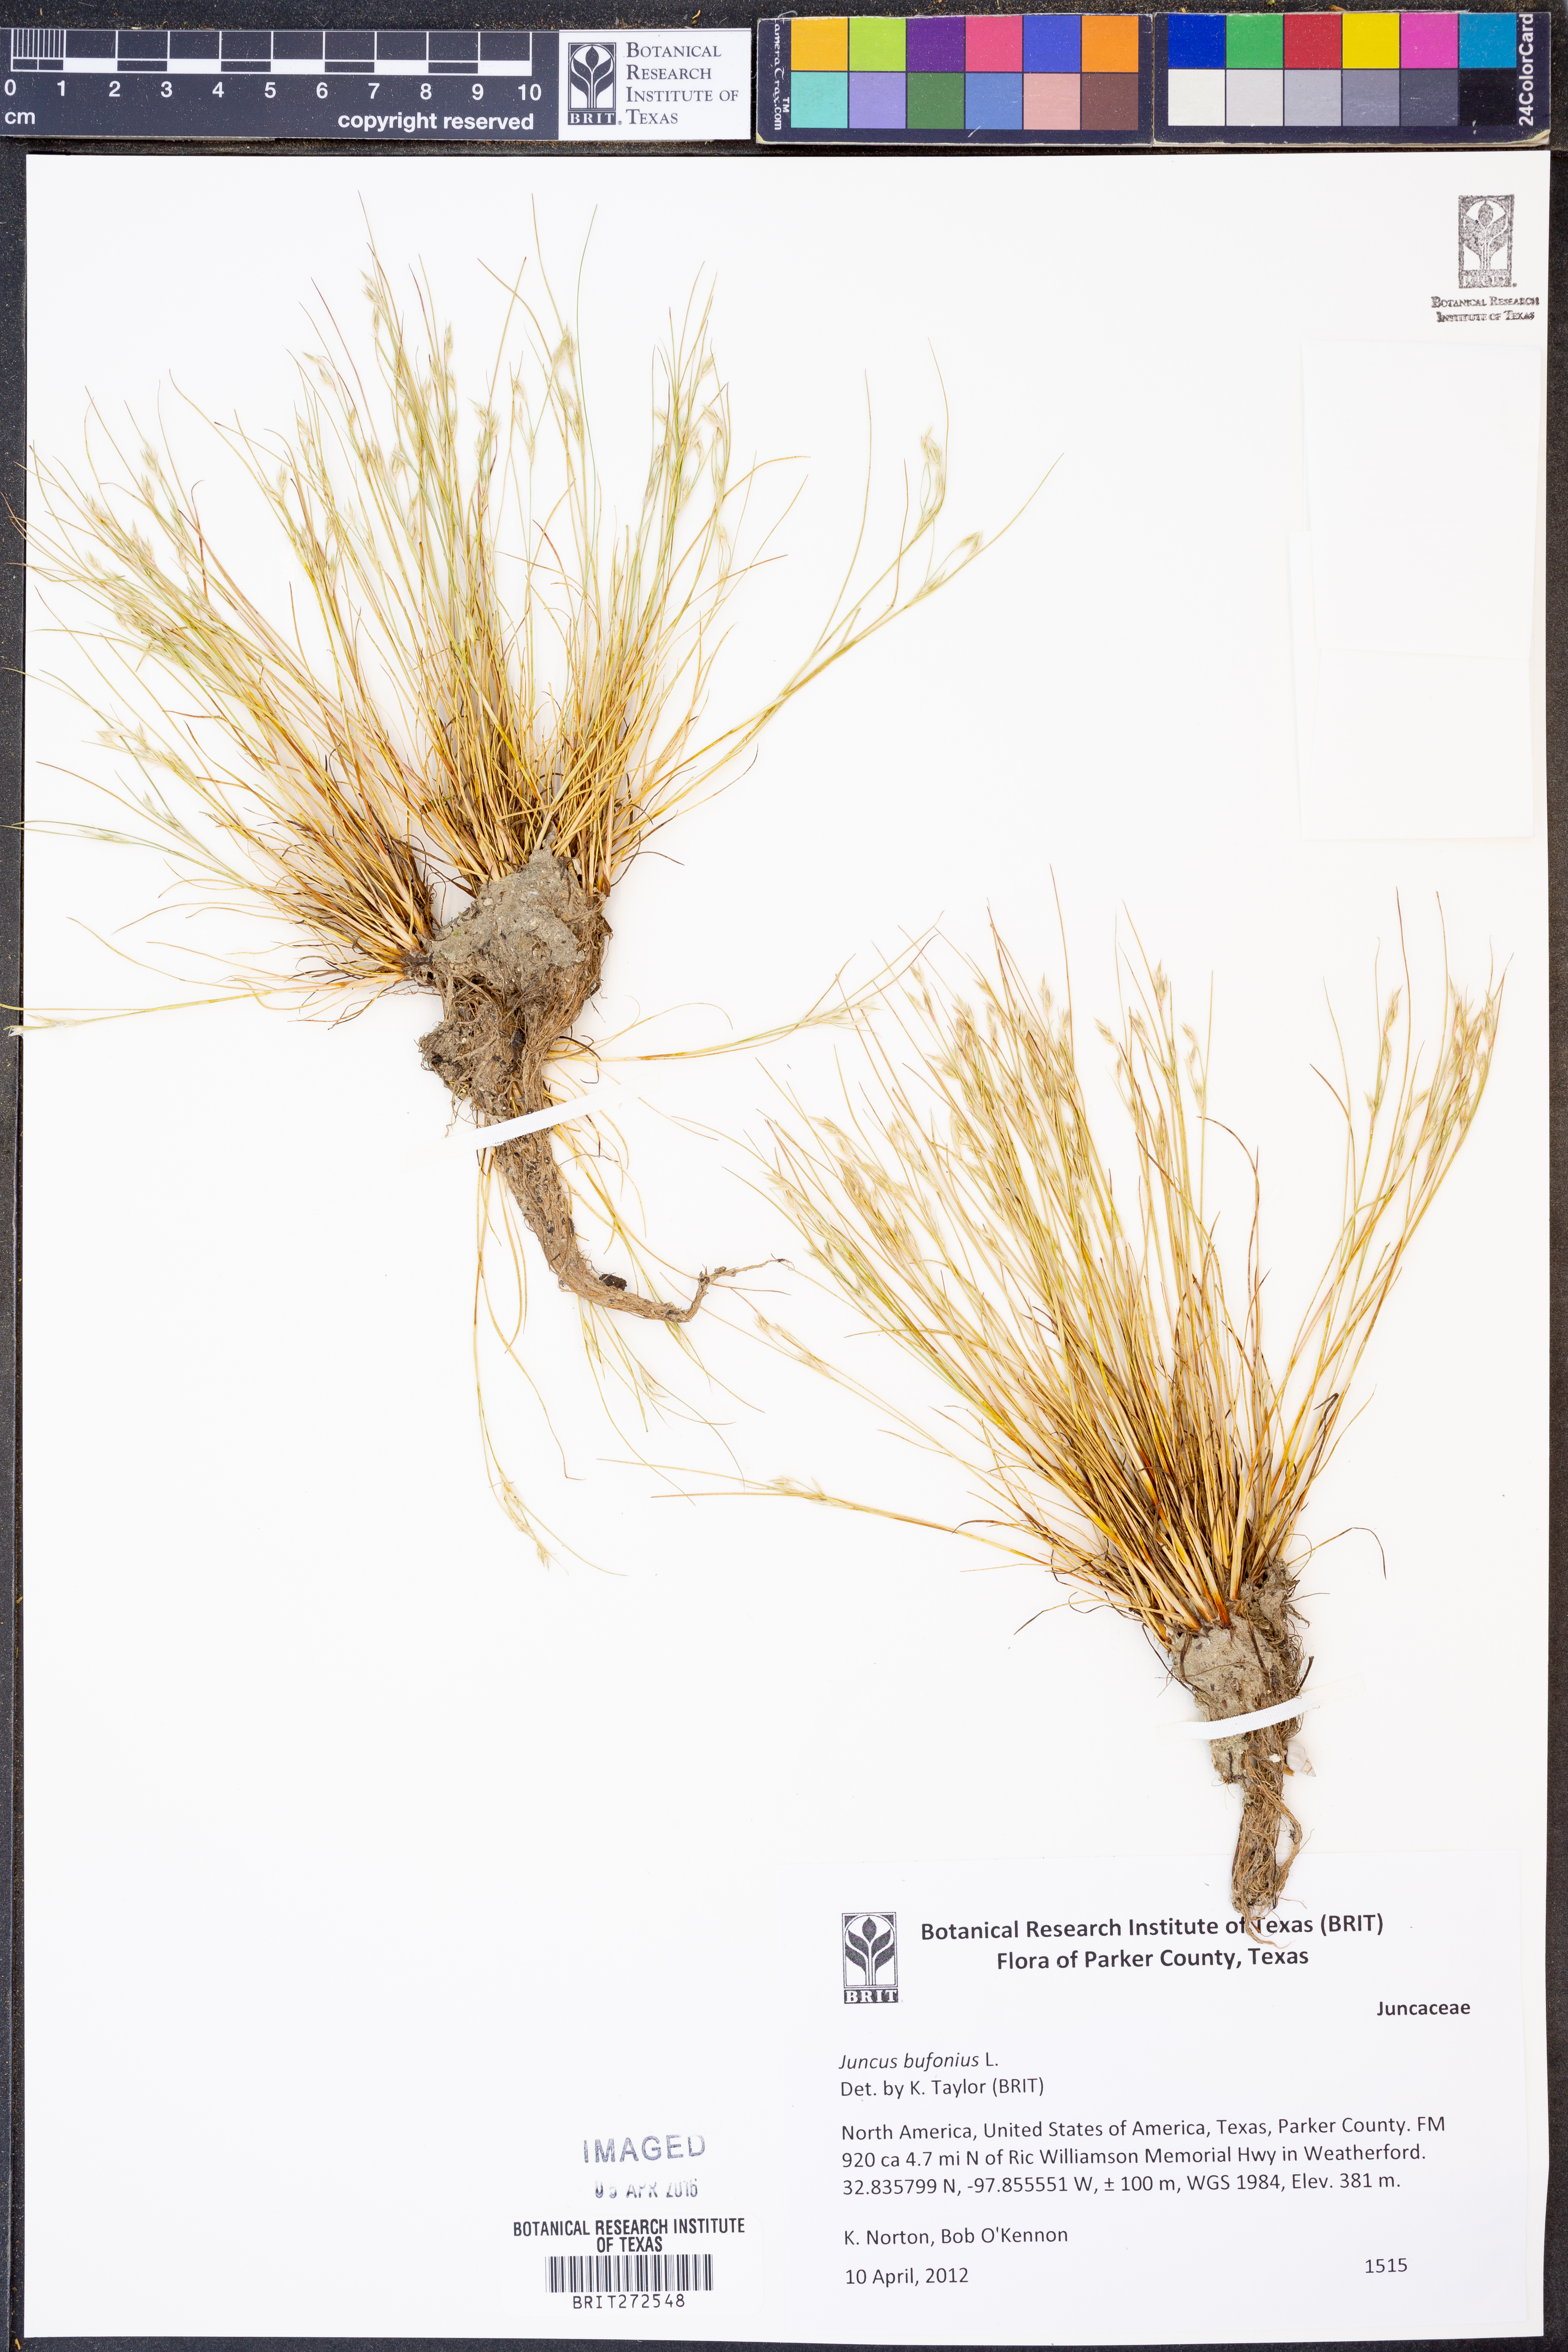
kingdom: Plantae
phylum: Tracheophyta
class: Liliopsida
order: Poales
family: Juncaceae
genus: Juncus
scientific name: Juncus bufonius
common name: Toad rush
